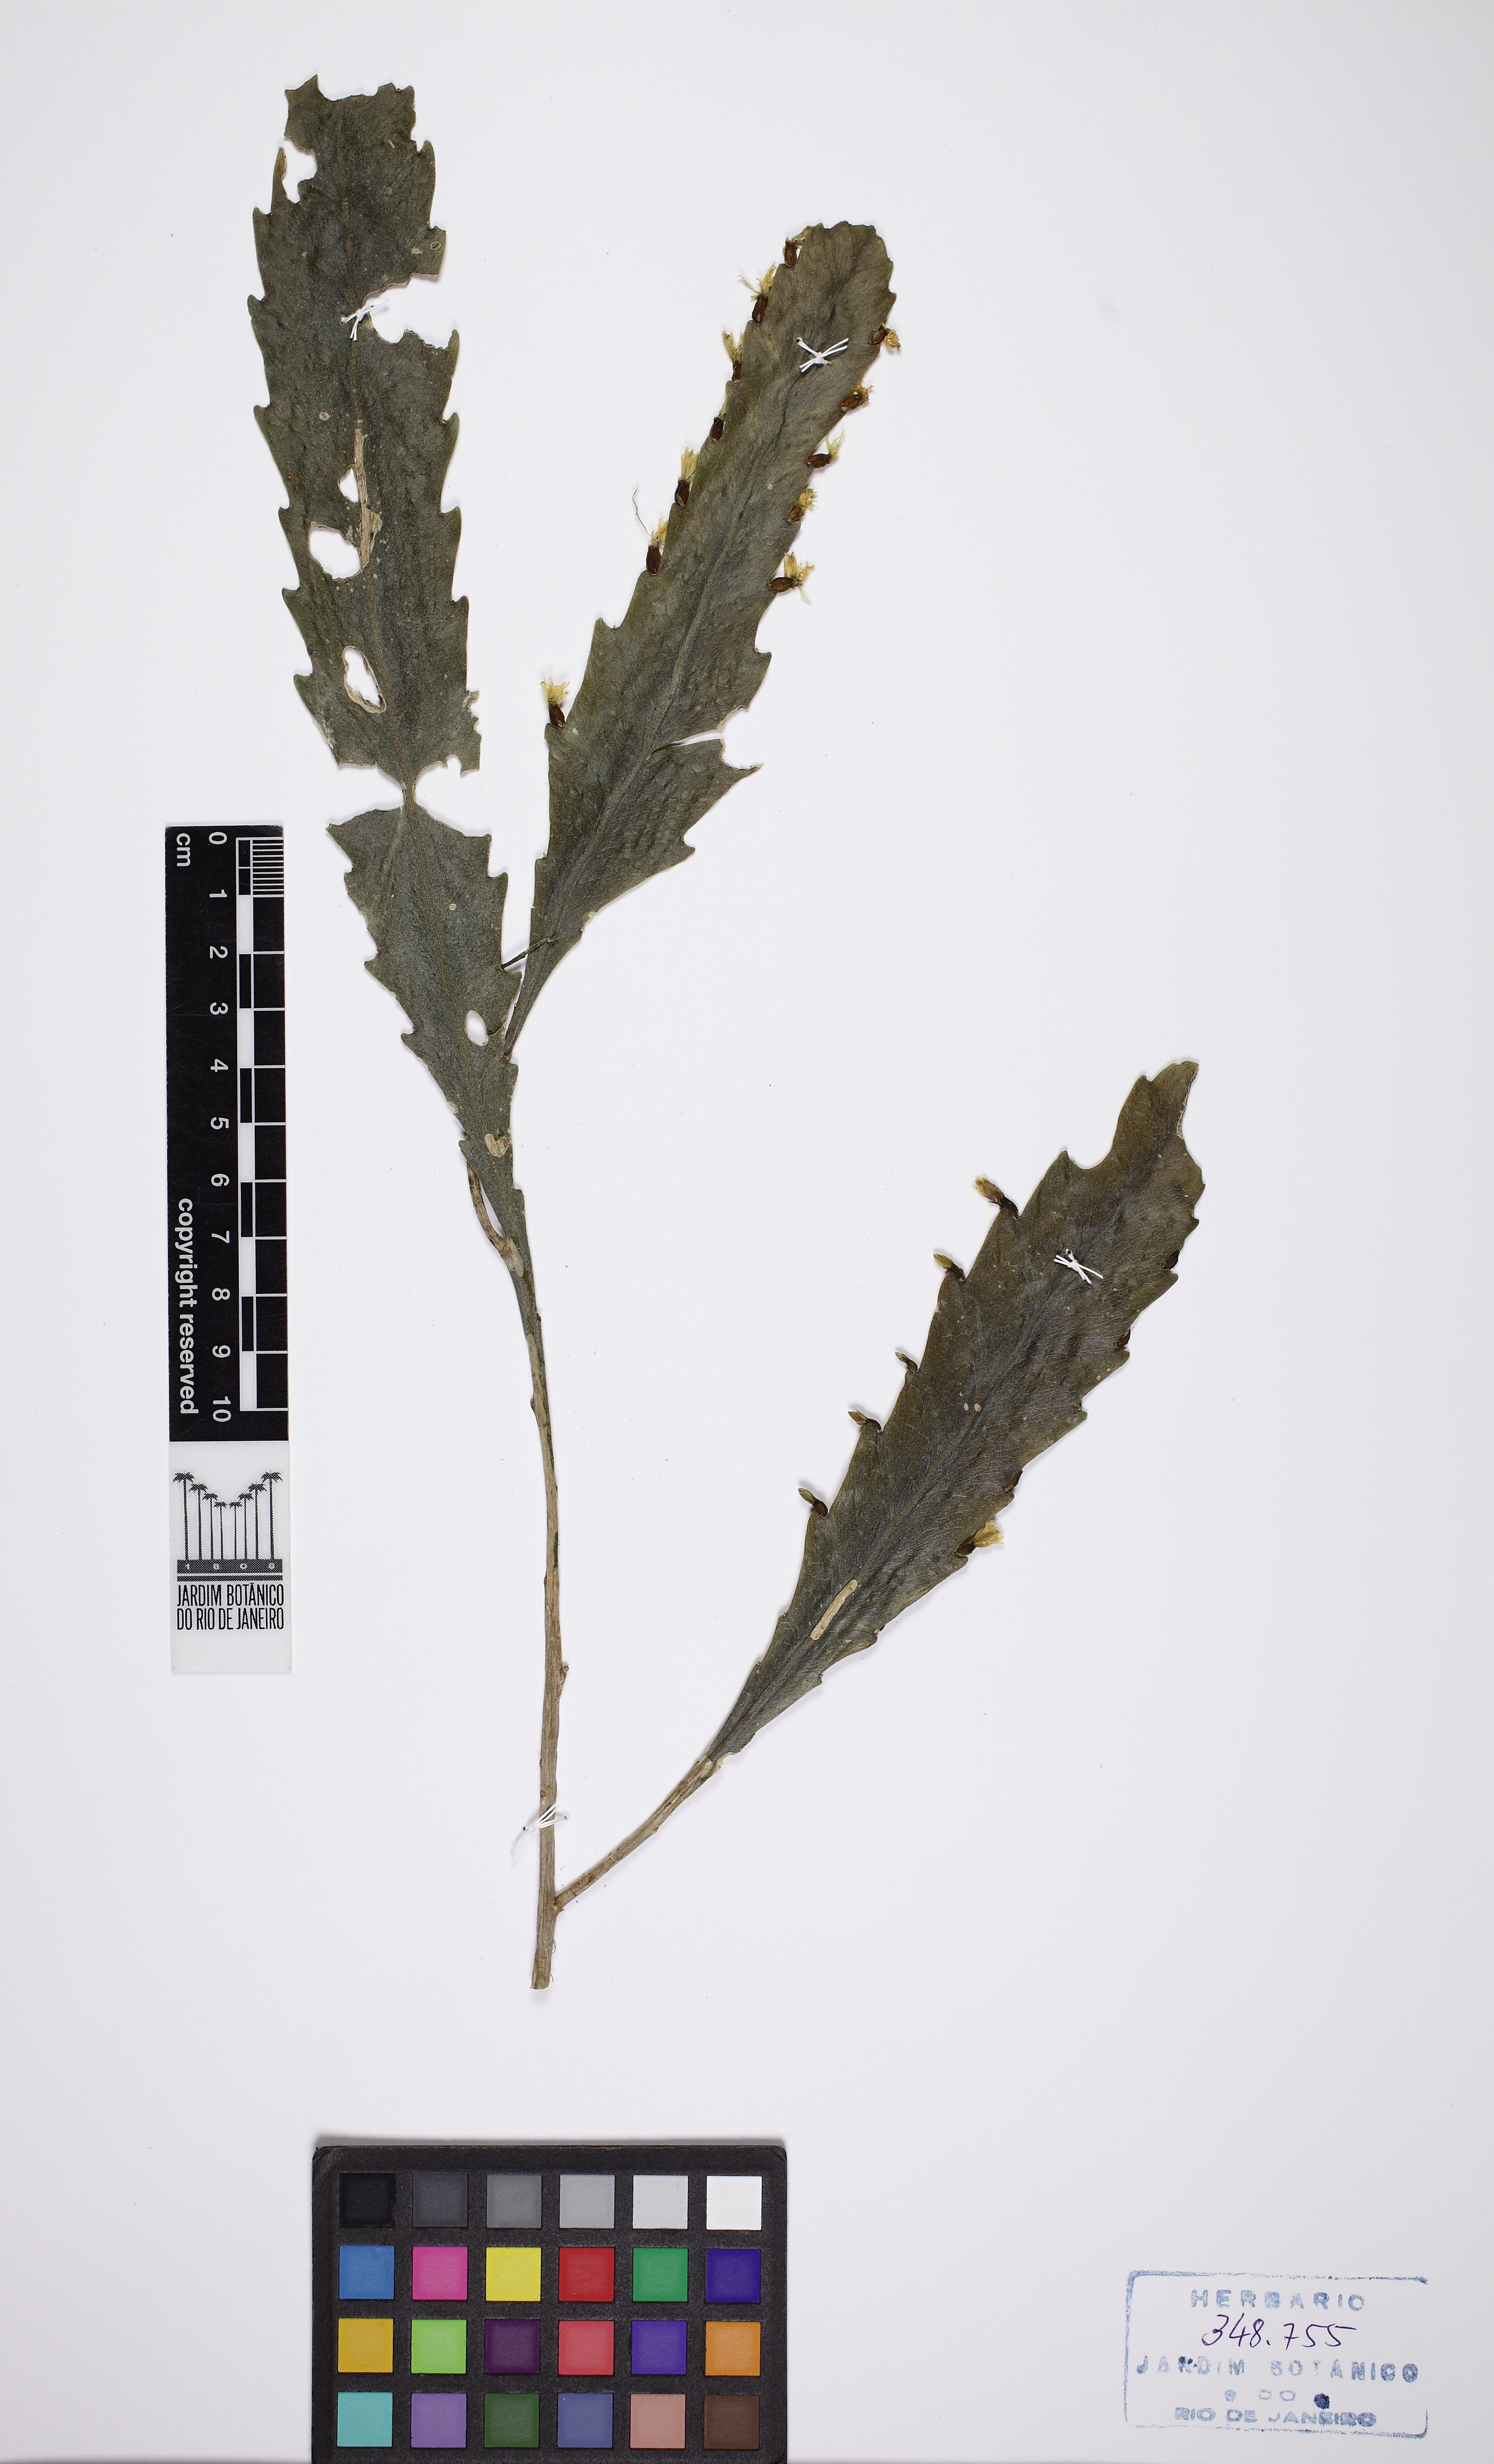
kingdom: Plantae
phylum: Tracheophyta
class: Magnoliopsida
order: Caryophyllales
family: Cactaceae
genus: Lepismium
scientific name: Lepismium houlletianum
